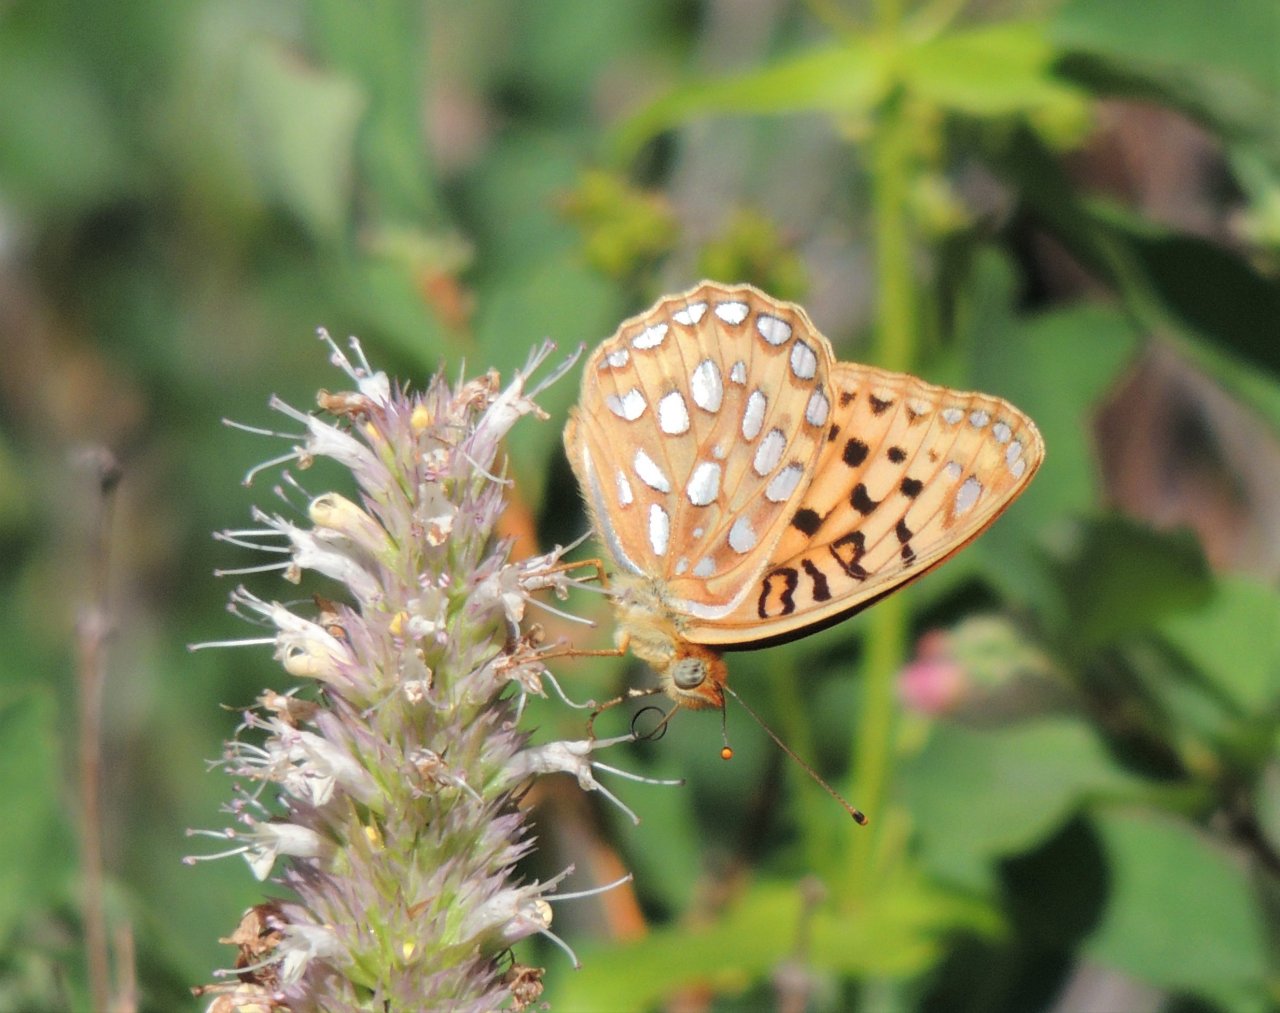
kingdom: Animalia
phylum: Arthropoda
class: Insecta
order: Lepidoptera
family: Nymphalidae
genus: Speyeria
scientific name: Speyeria coronis
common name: Coronis Fritillary
